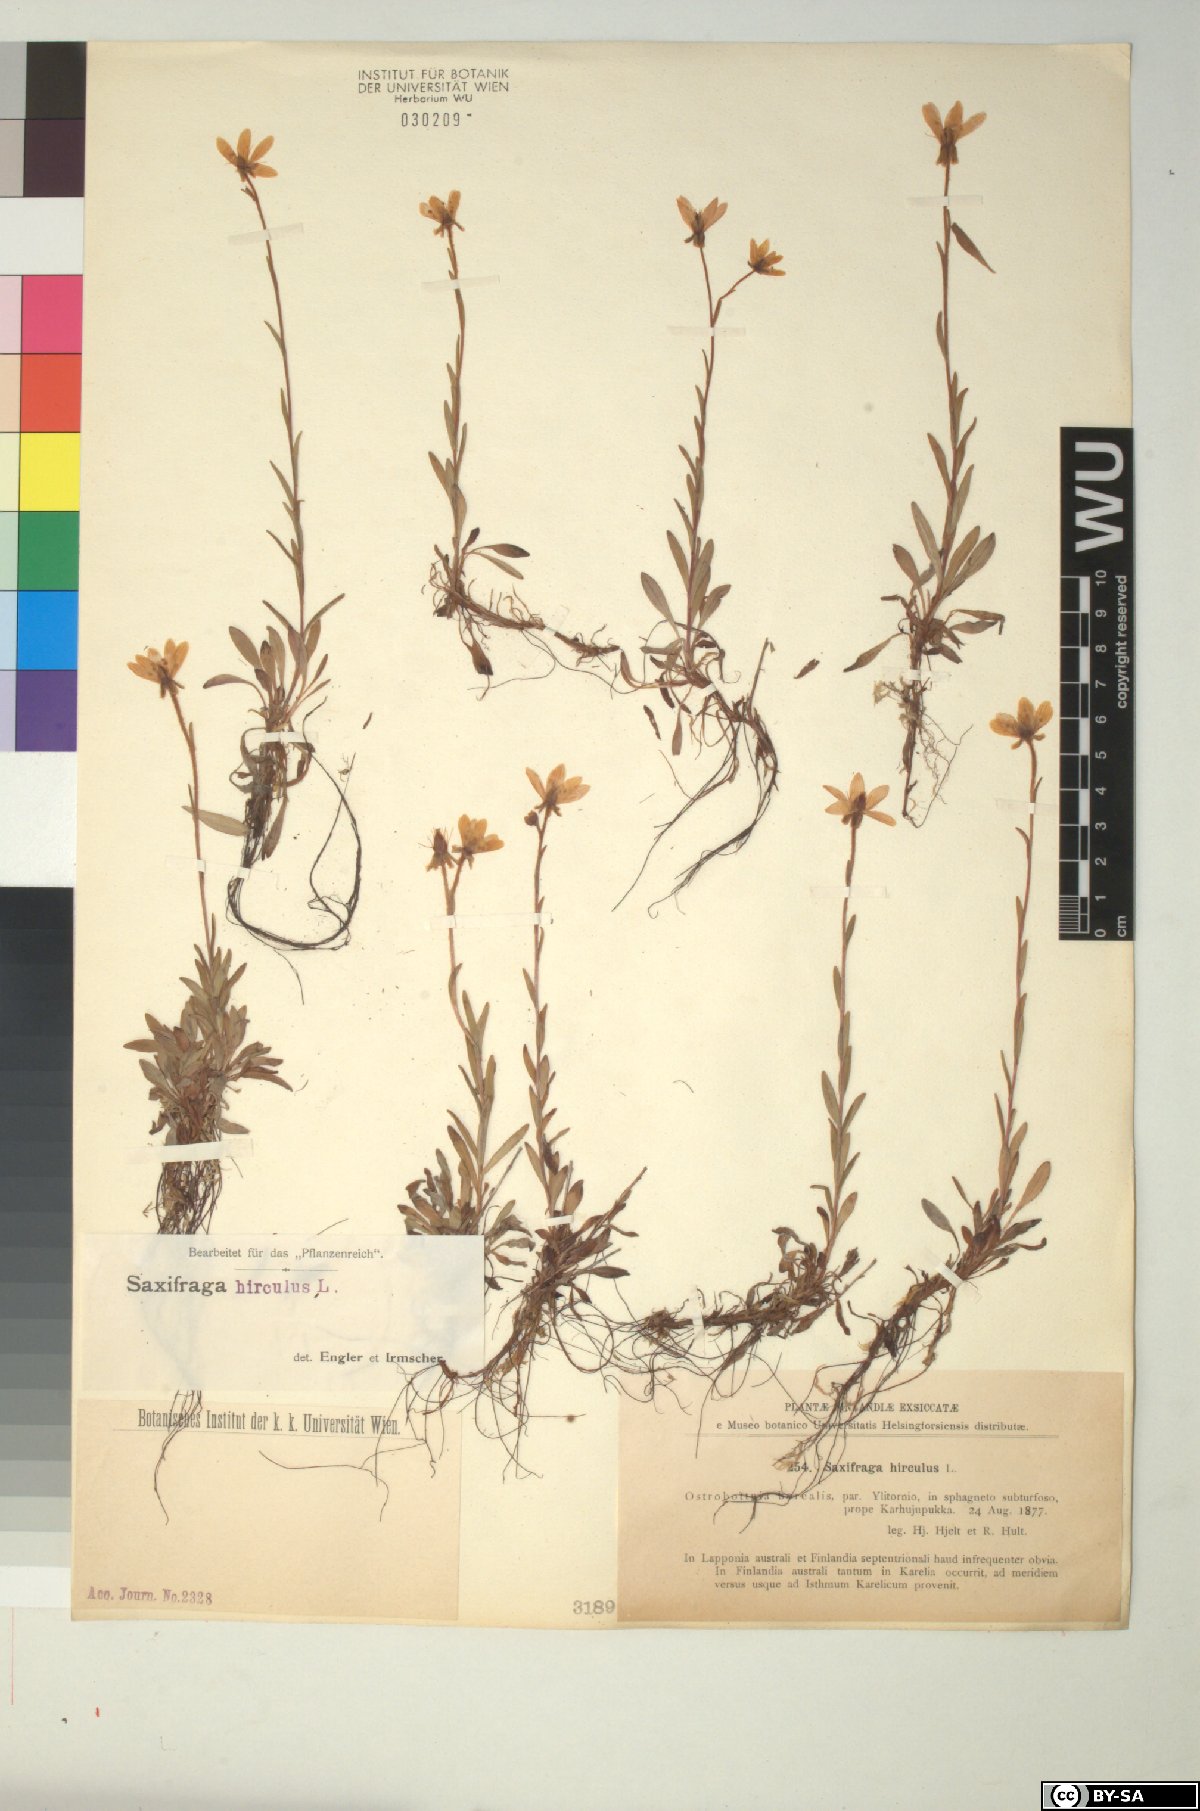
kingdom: Plantae
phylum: Tracheophyta
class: Magnoliopsida
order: Saxifragales
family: Saxifragaceae
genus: Saxifraga
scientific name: Saxifraga hirculus
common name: Yellow marsh saxifrage
